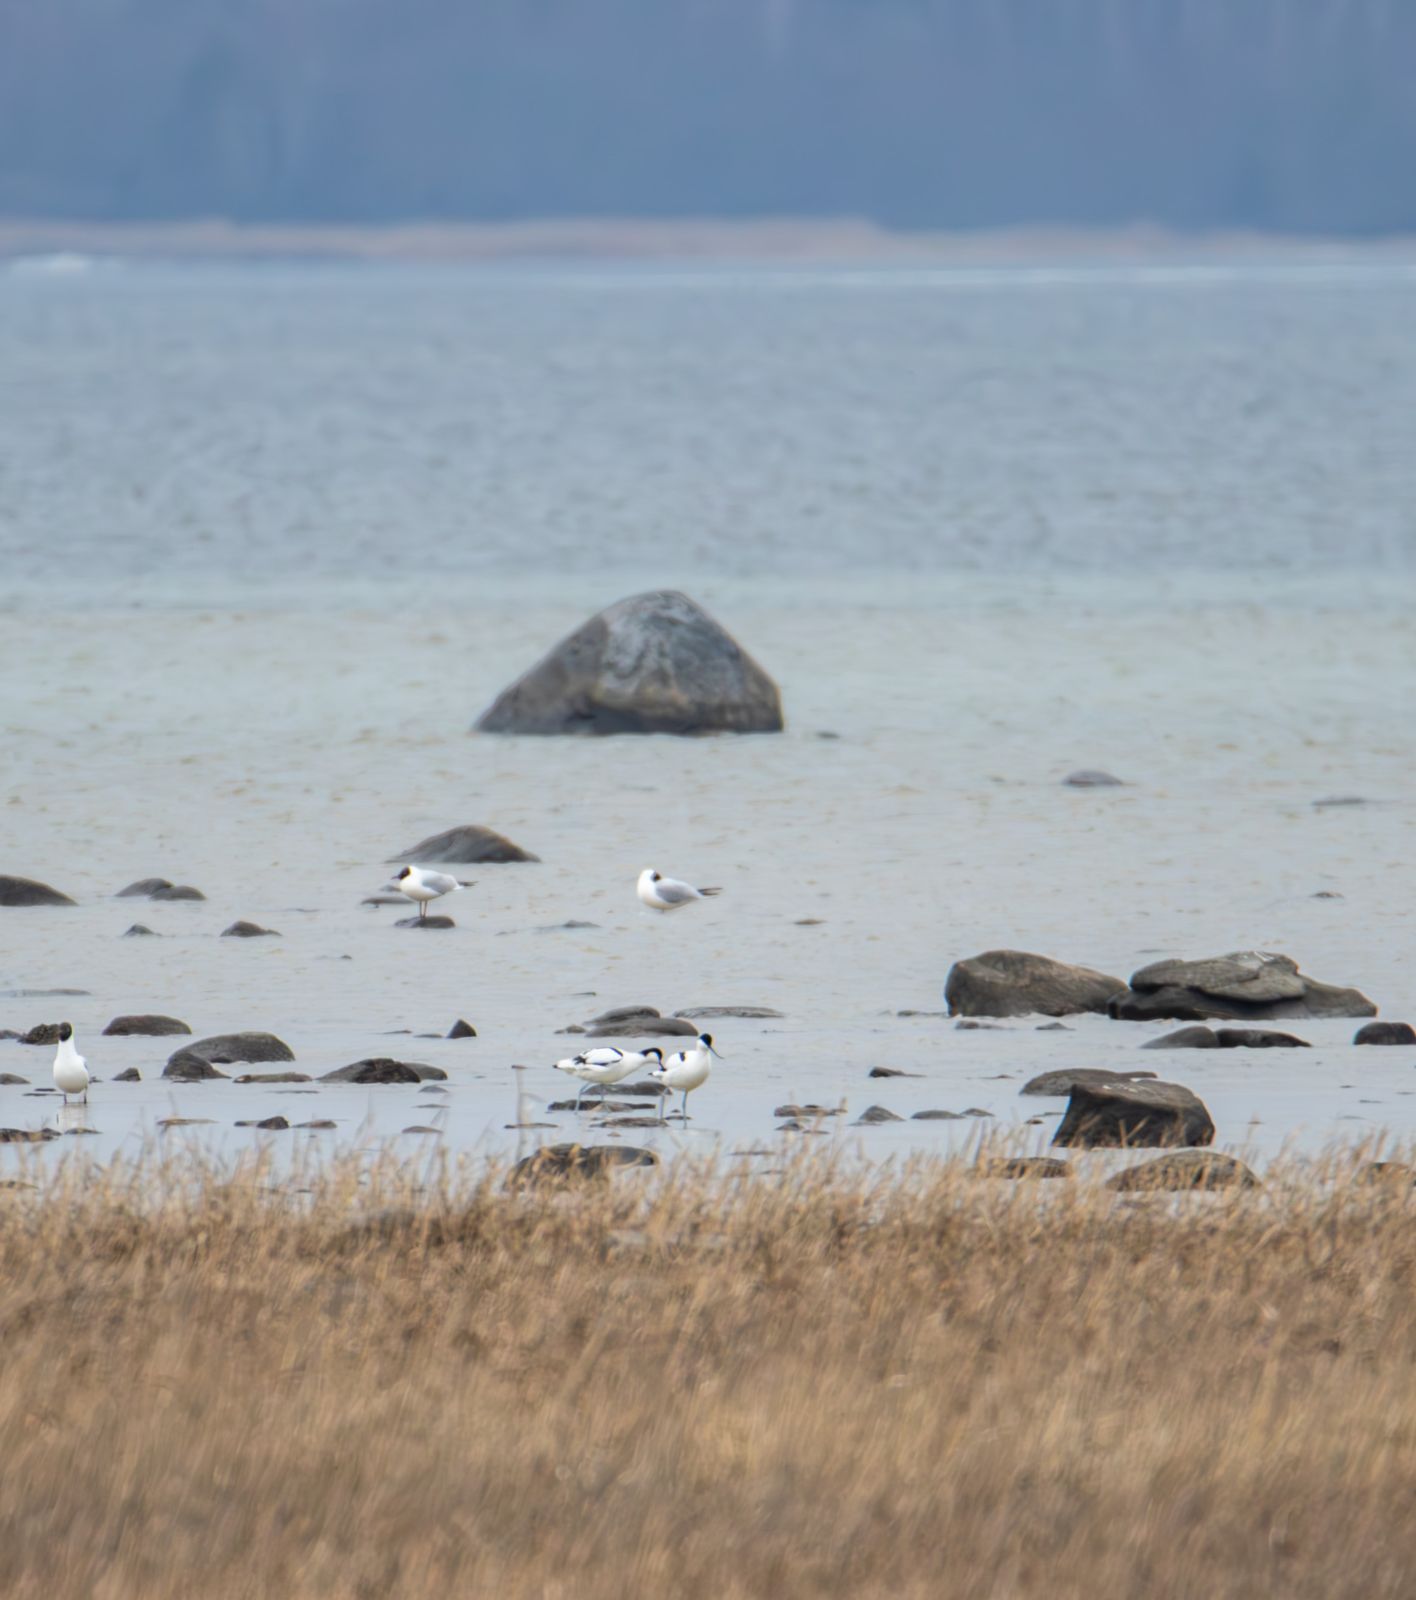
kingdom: Animalia
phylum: Chordata
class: Aves
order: Charadriiformes
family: Recurvirostridae
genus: Recurvirostra
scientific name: Recurvirostra avosetta
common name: Pied avocet
